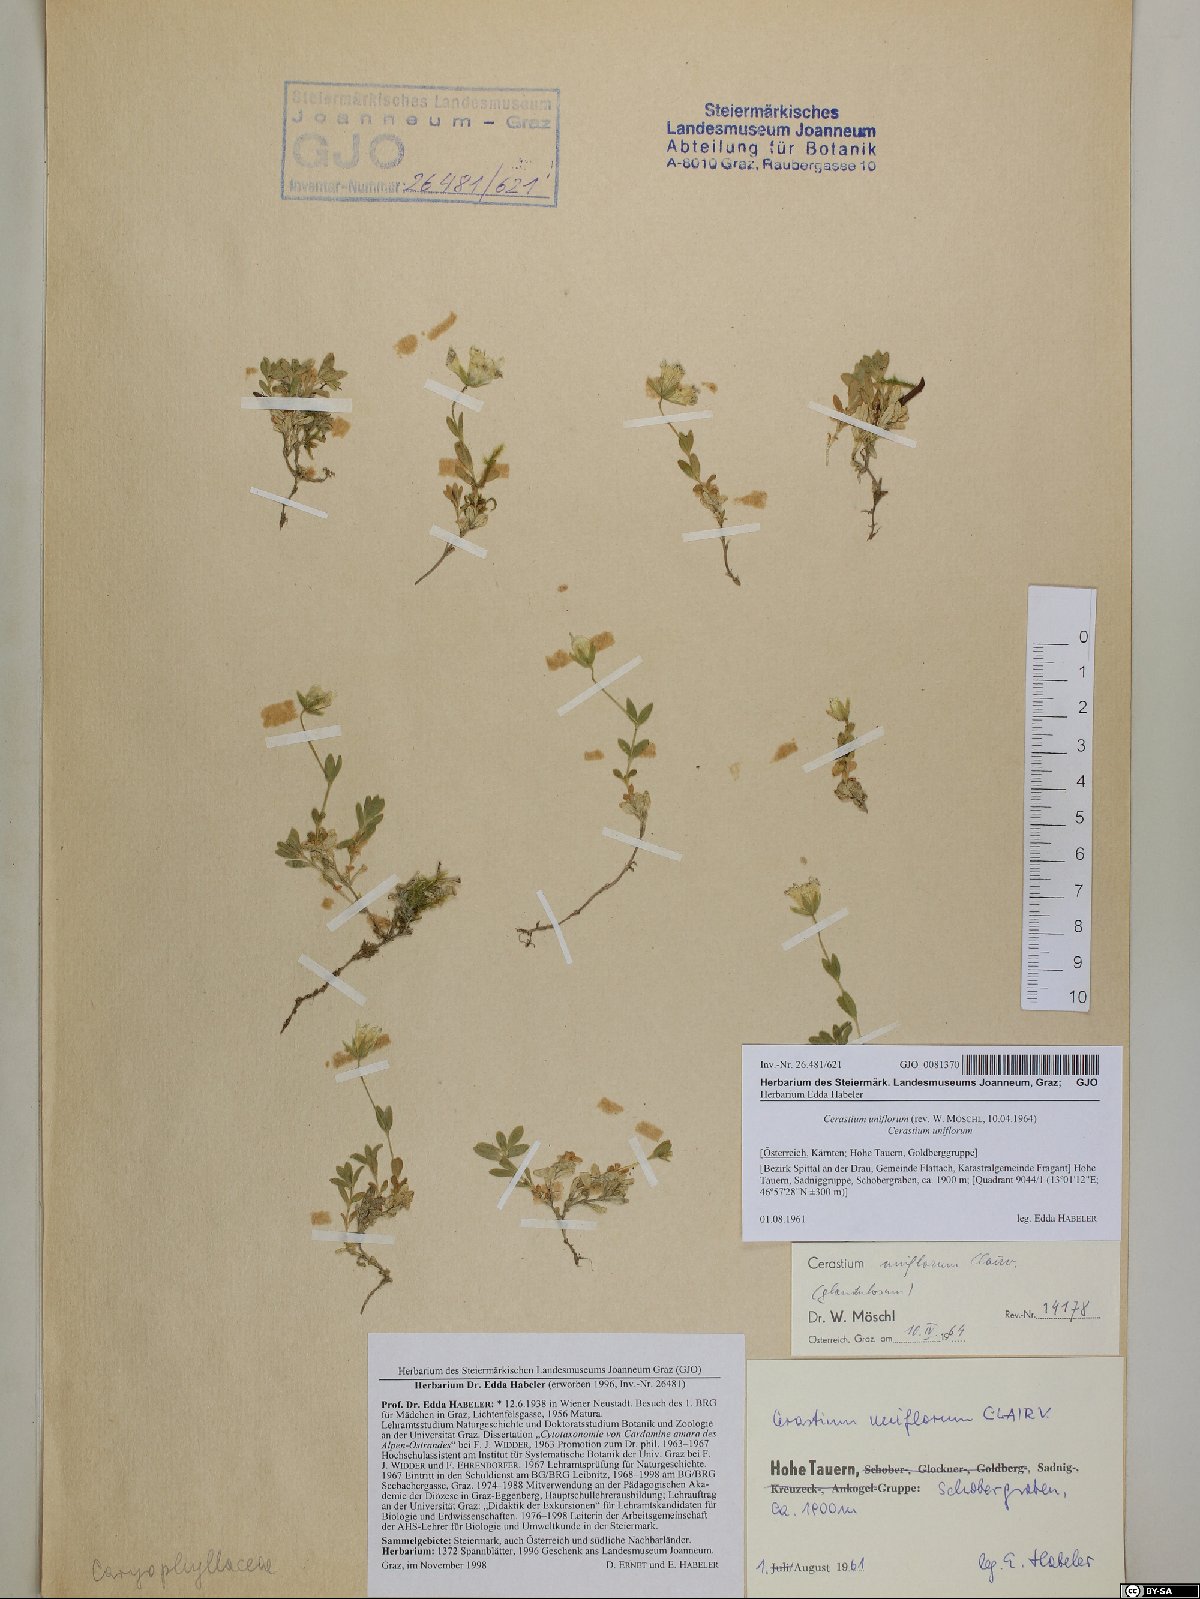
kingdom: Plantae
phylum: Tracheophyta
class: Magnoliopsida
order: Caryophyllales
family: Caryophyllaceae
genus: Cerastium
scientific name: Cerastium uniflorum
